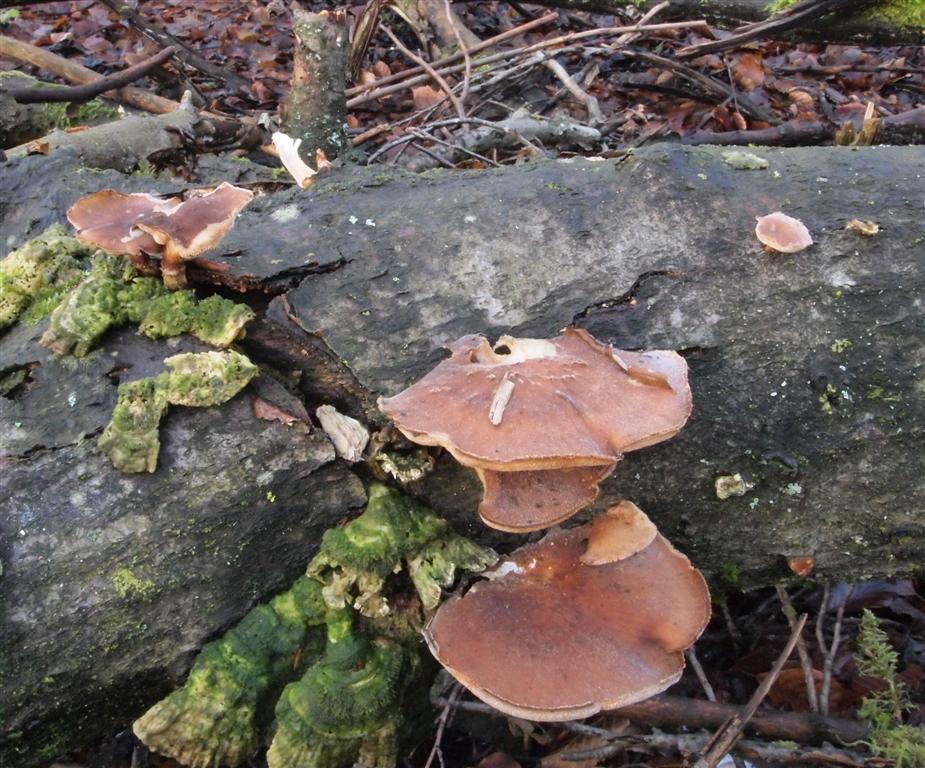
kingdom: Fungi
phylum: Basidiomycota
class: Agaricomycetes
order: Polyporales
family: Polyporaceae
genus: Lentinus
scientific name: Lentinus brumalis
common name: vinter-stilkporesvamp
